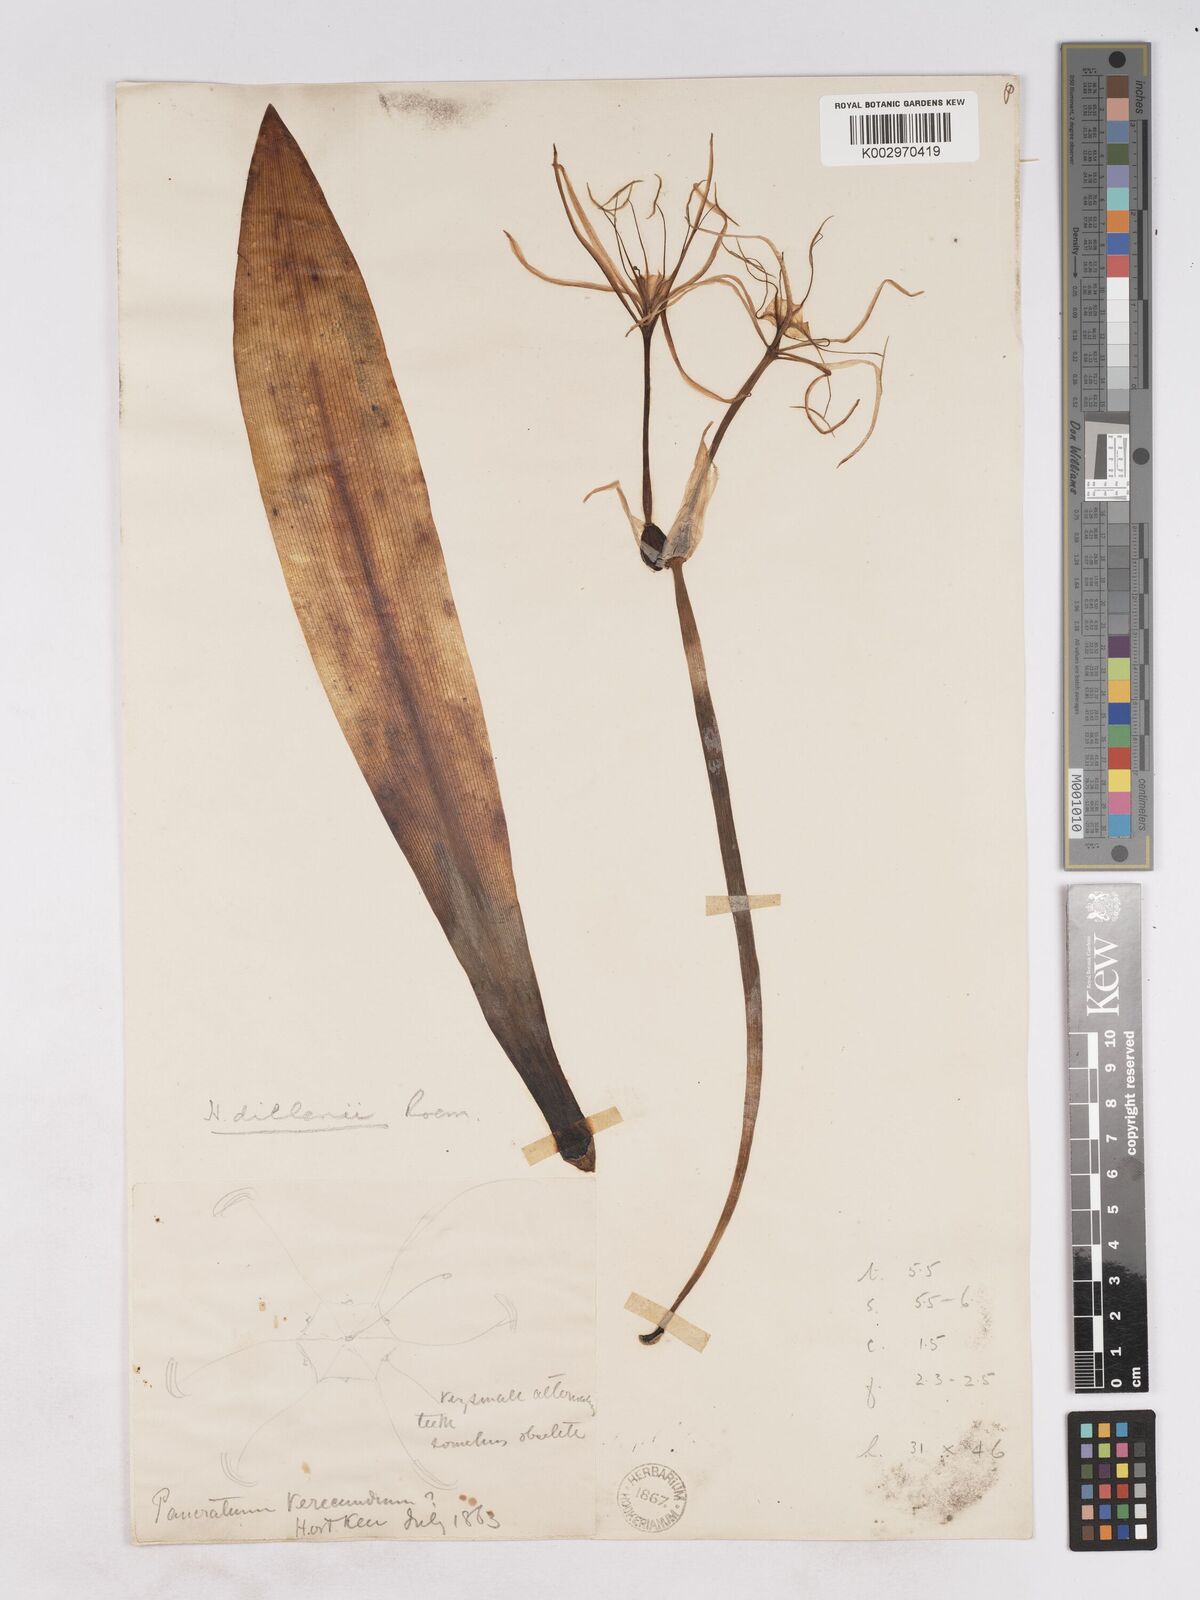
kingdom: Plantae
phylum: Tracheophyta
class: Liliopsida
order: Asparagales
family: Amaryllidaceae
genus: Hymenocallis
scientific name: Hymenocallis harrisiana
